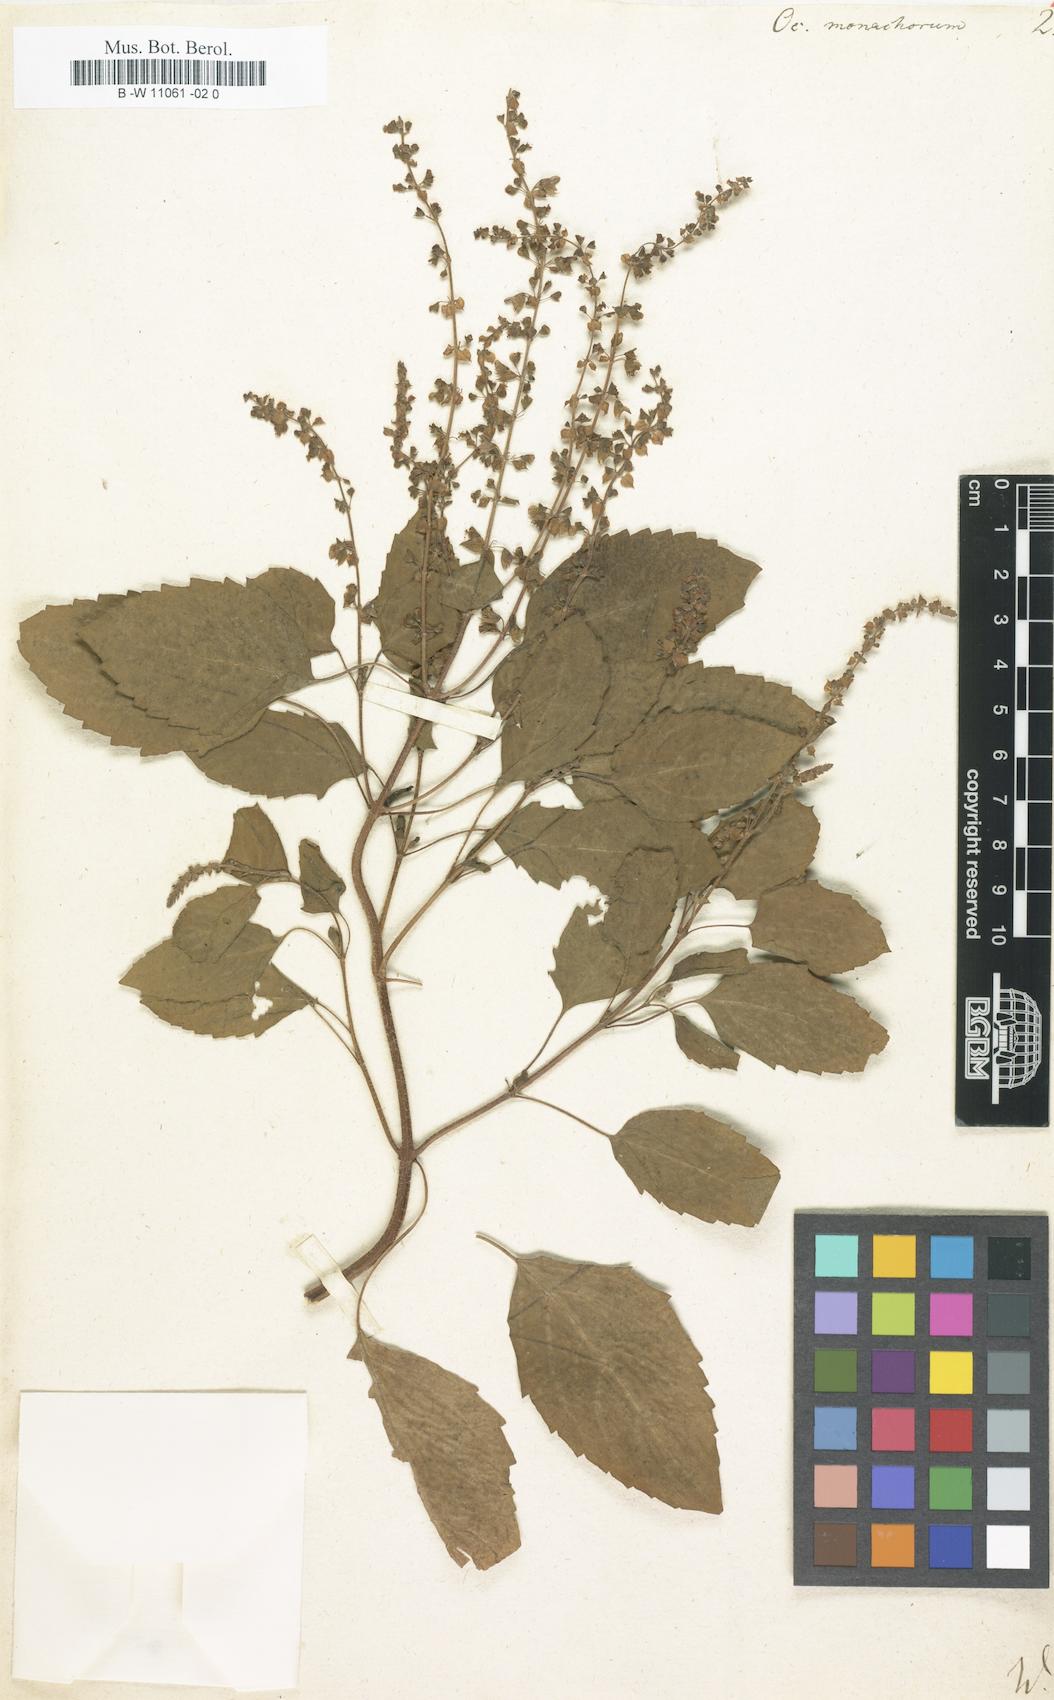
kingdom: Plantae
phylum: Tracheophyta
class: Magnoliopsida
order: Lamiales
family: Lamiaceae
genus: Ocimum
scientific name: Ocimum tenuiflorum
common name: Sacred basil
